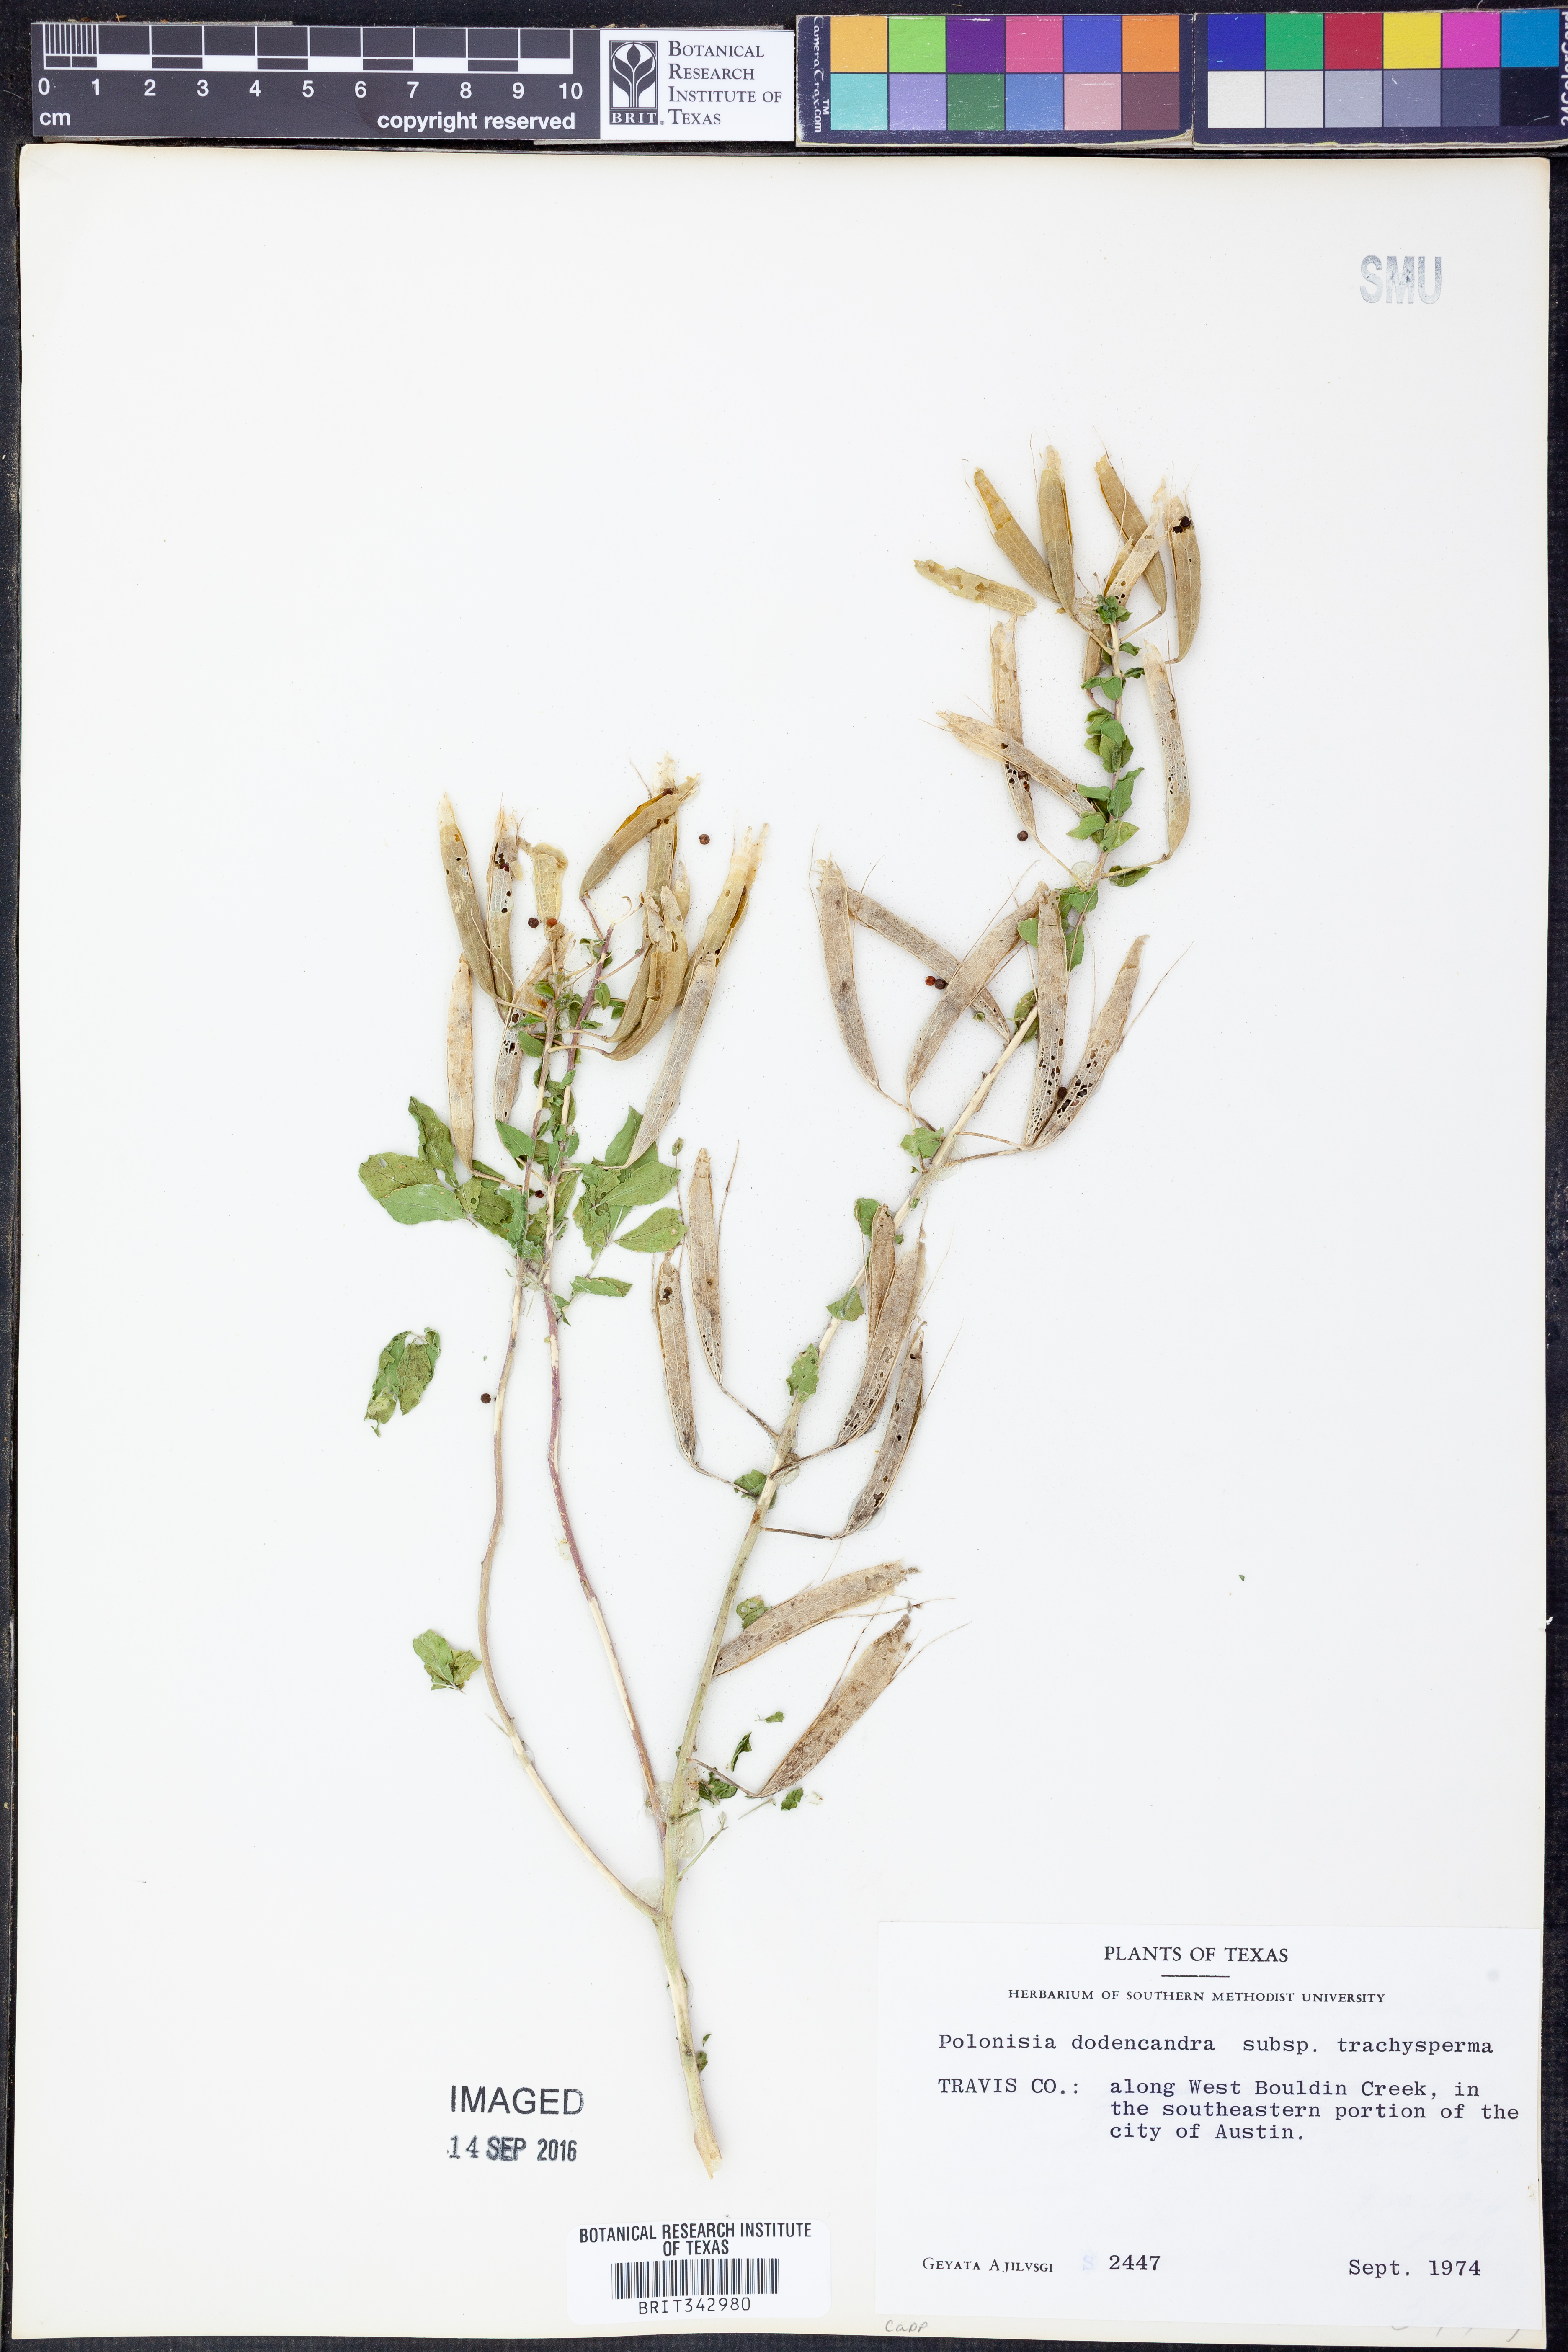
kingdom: Plantae
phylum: Tracheophyta
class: Magnoliopsida
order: Brassicales
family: Cleomaceae
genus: Polanisia
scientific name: Polanisia trachysperma
